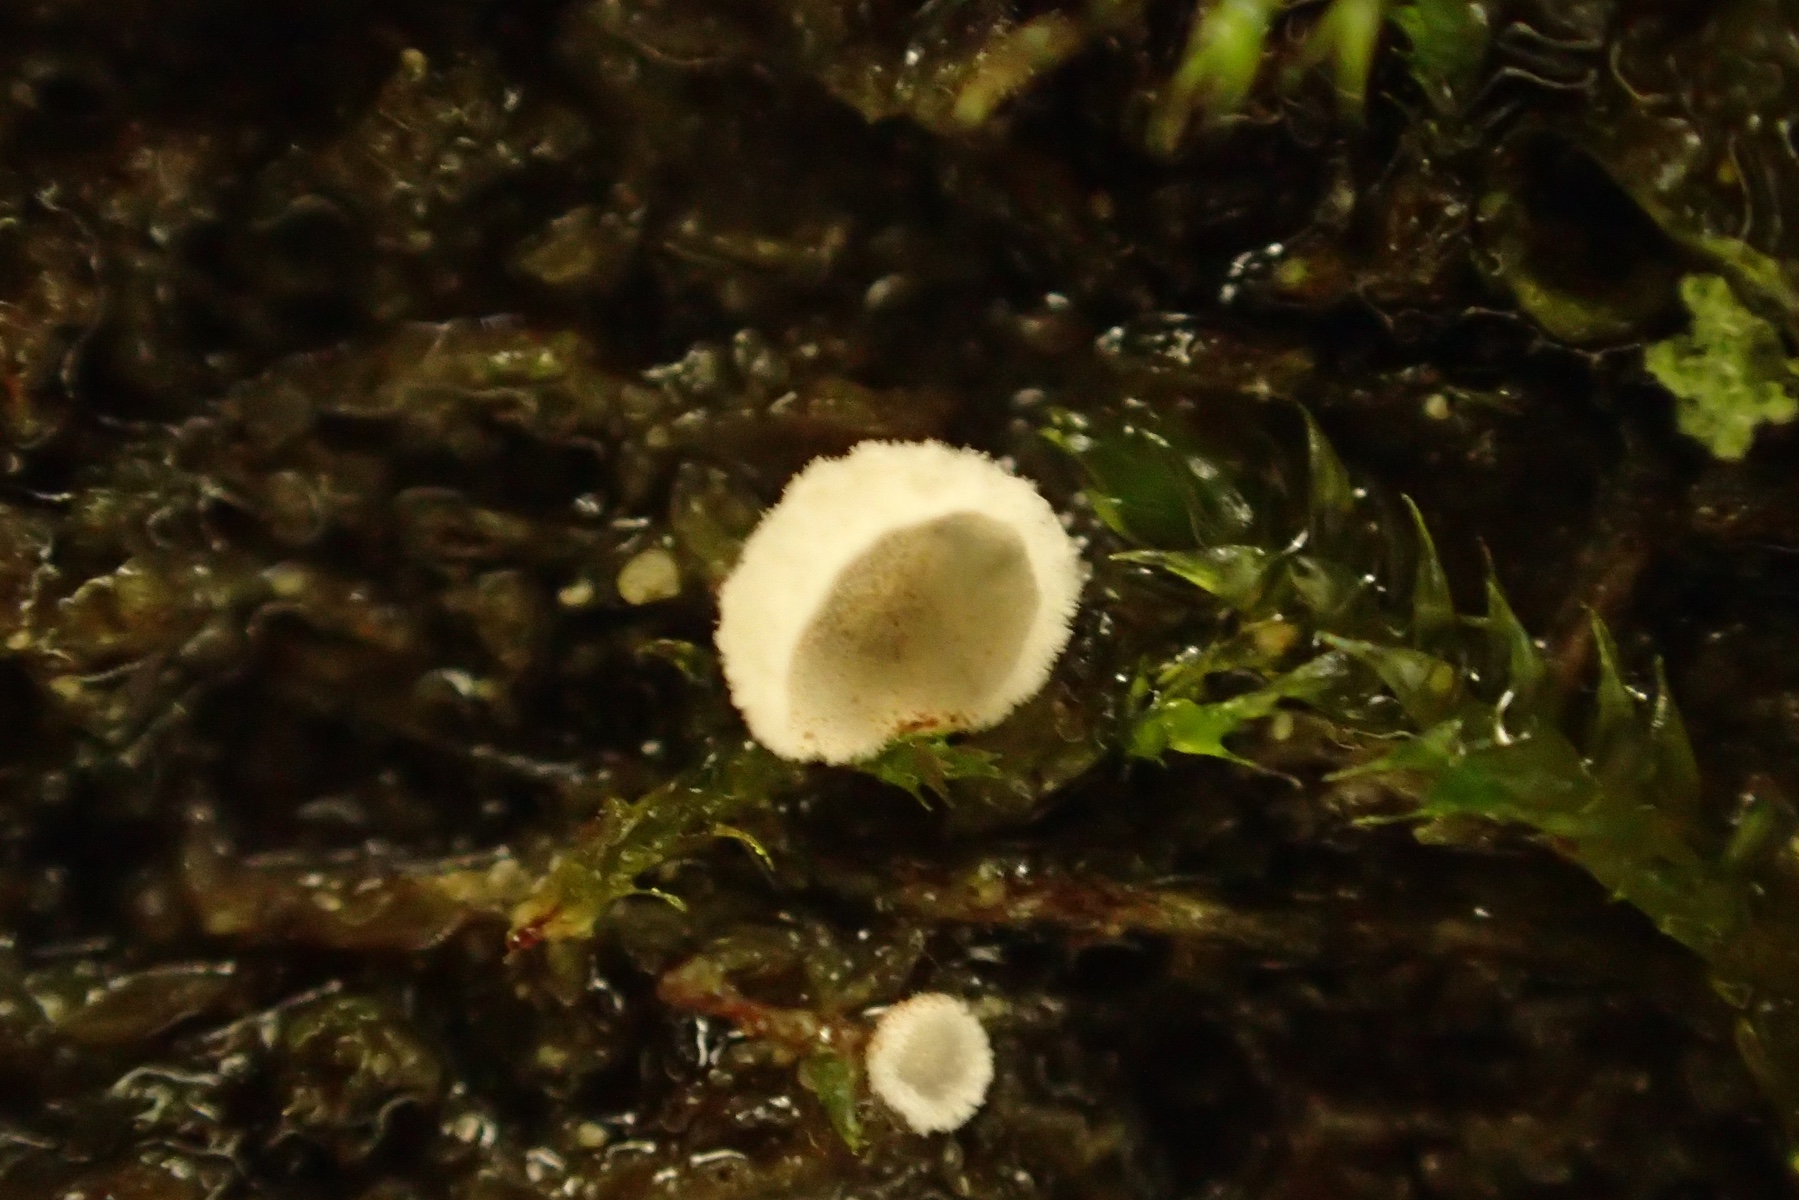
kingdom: Fungi
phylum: Basidiomycota
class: Agaricomycetes
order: Agaricales
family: Chromocyphellaceae
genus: Chromocyphella
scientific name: Chromocyphella muscicola
